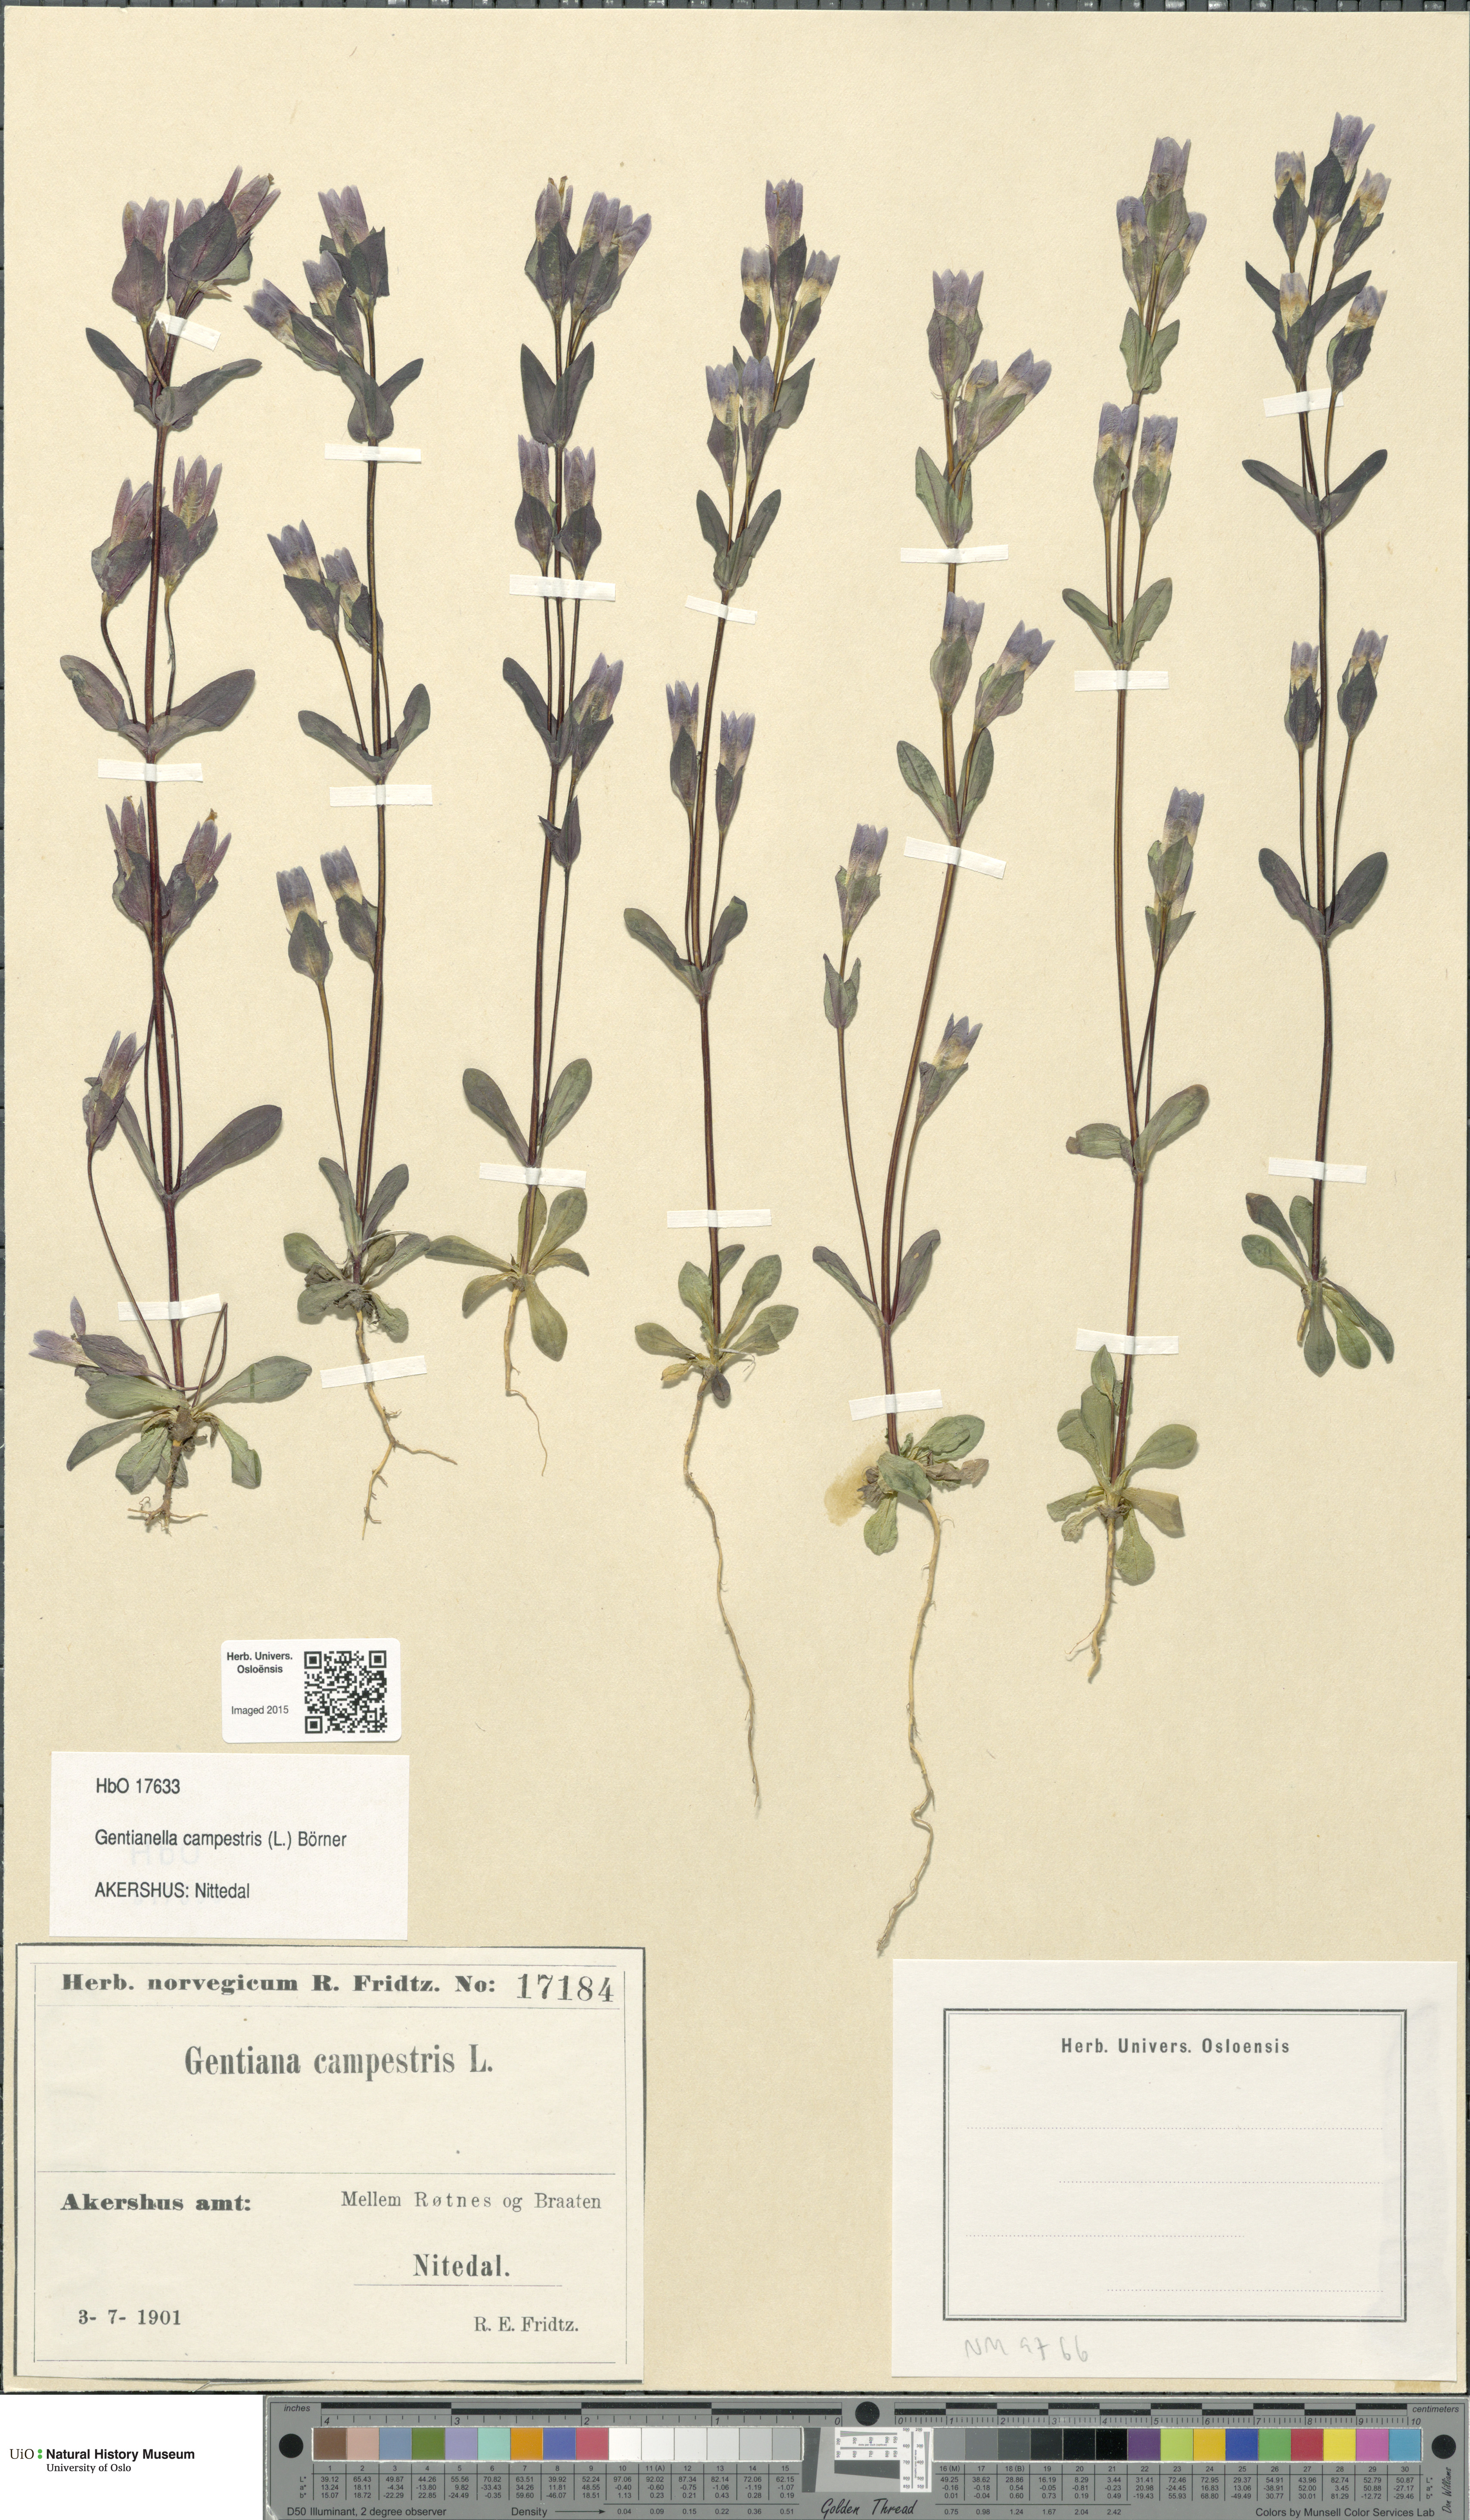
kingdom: Plantae
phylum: Tracheophyta
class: Magnoliopsida
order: Gentianales
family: Gentianaceae
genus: Gentianella
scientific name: Gentianella campestris
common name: Field gentian
